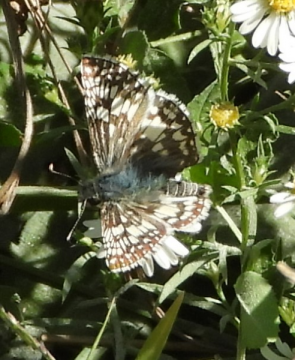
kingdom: Animalia
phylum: Arthropoda
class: Insecta
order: Lepidoptera
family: Hesperiidae
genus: Pyrgus
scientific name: Pyrgus communis
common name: Common Checkered-Skipper
